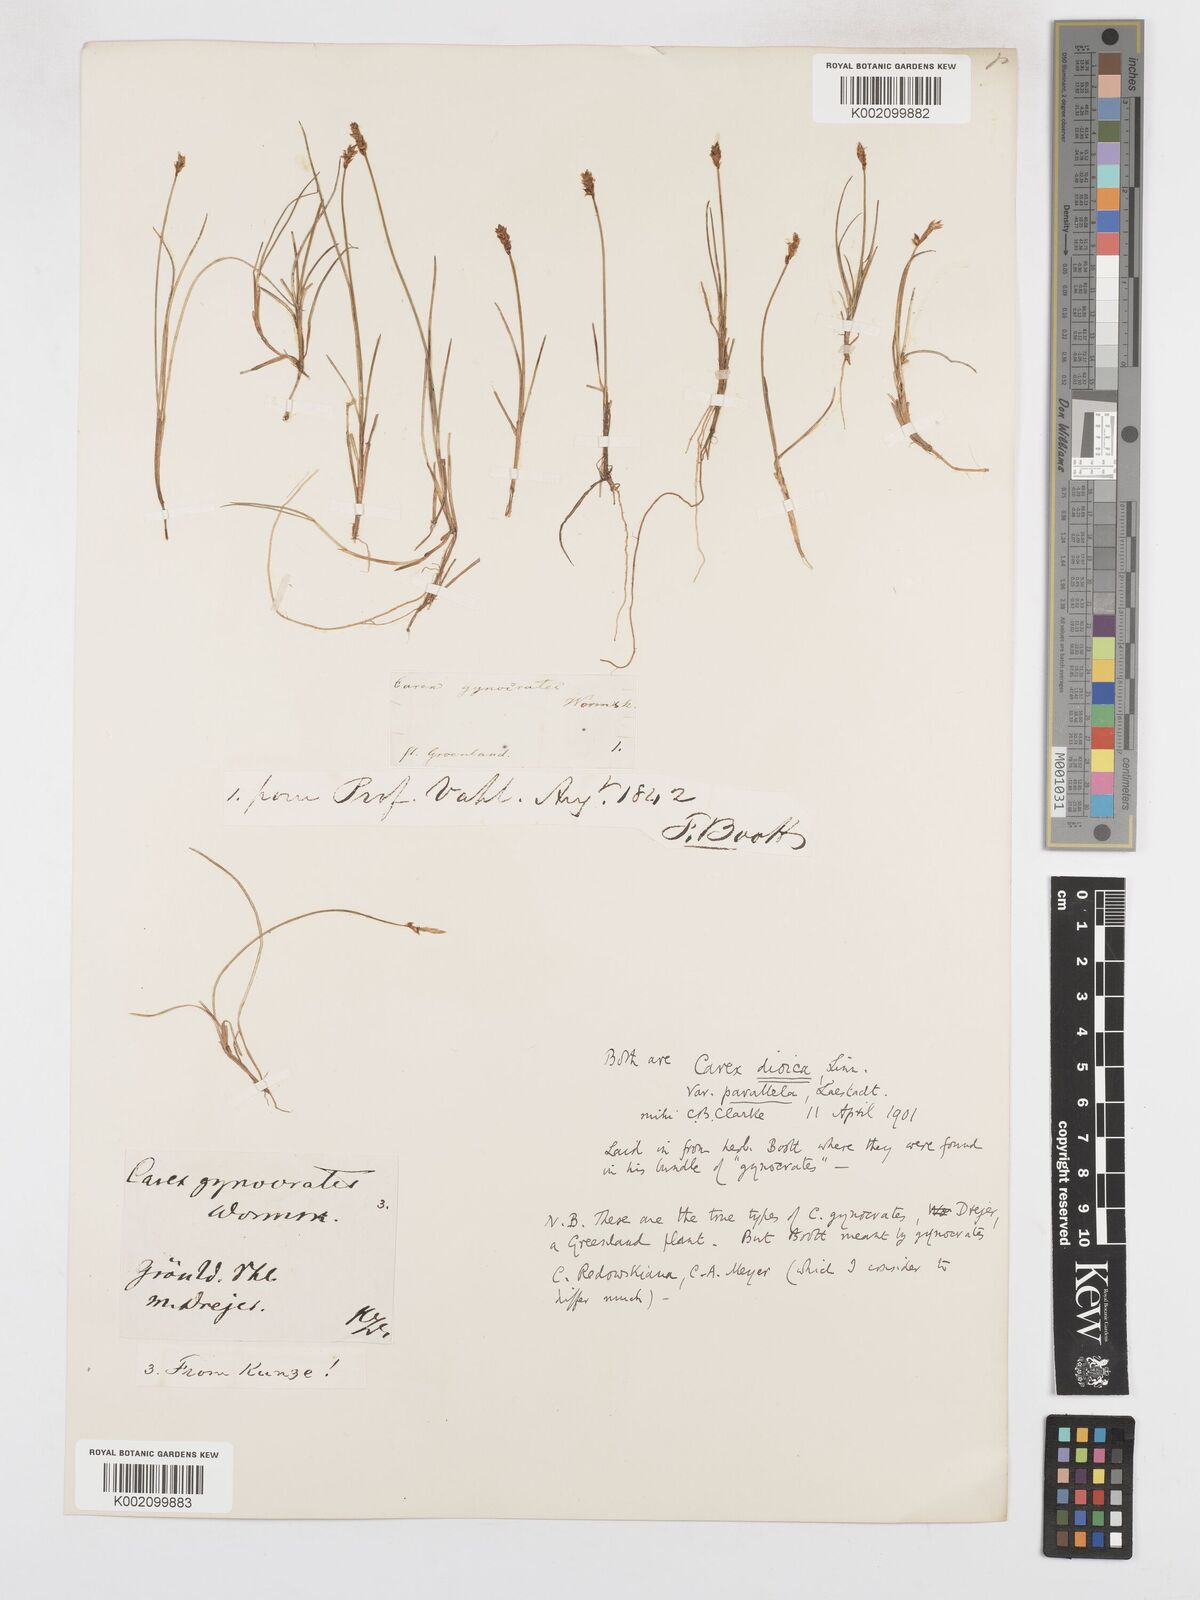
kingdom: Plantae
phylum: Tracheophyta
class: Liliopsida
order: Poales
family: Cyperaceae
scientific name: Cyperaceae
